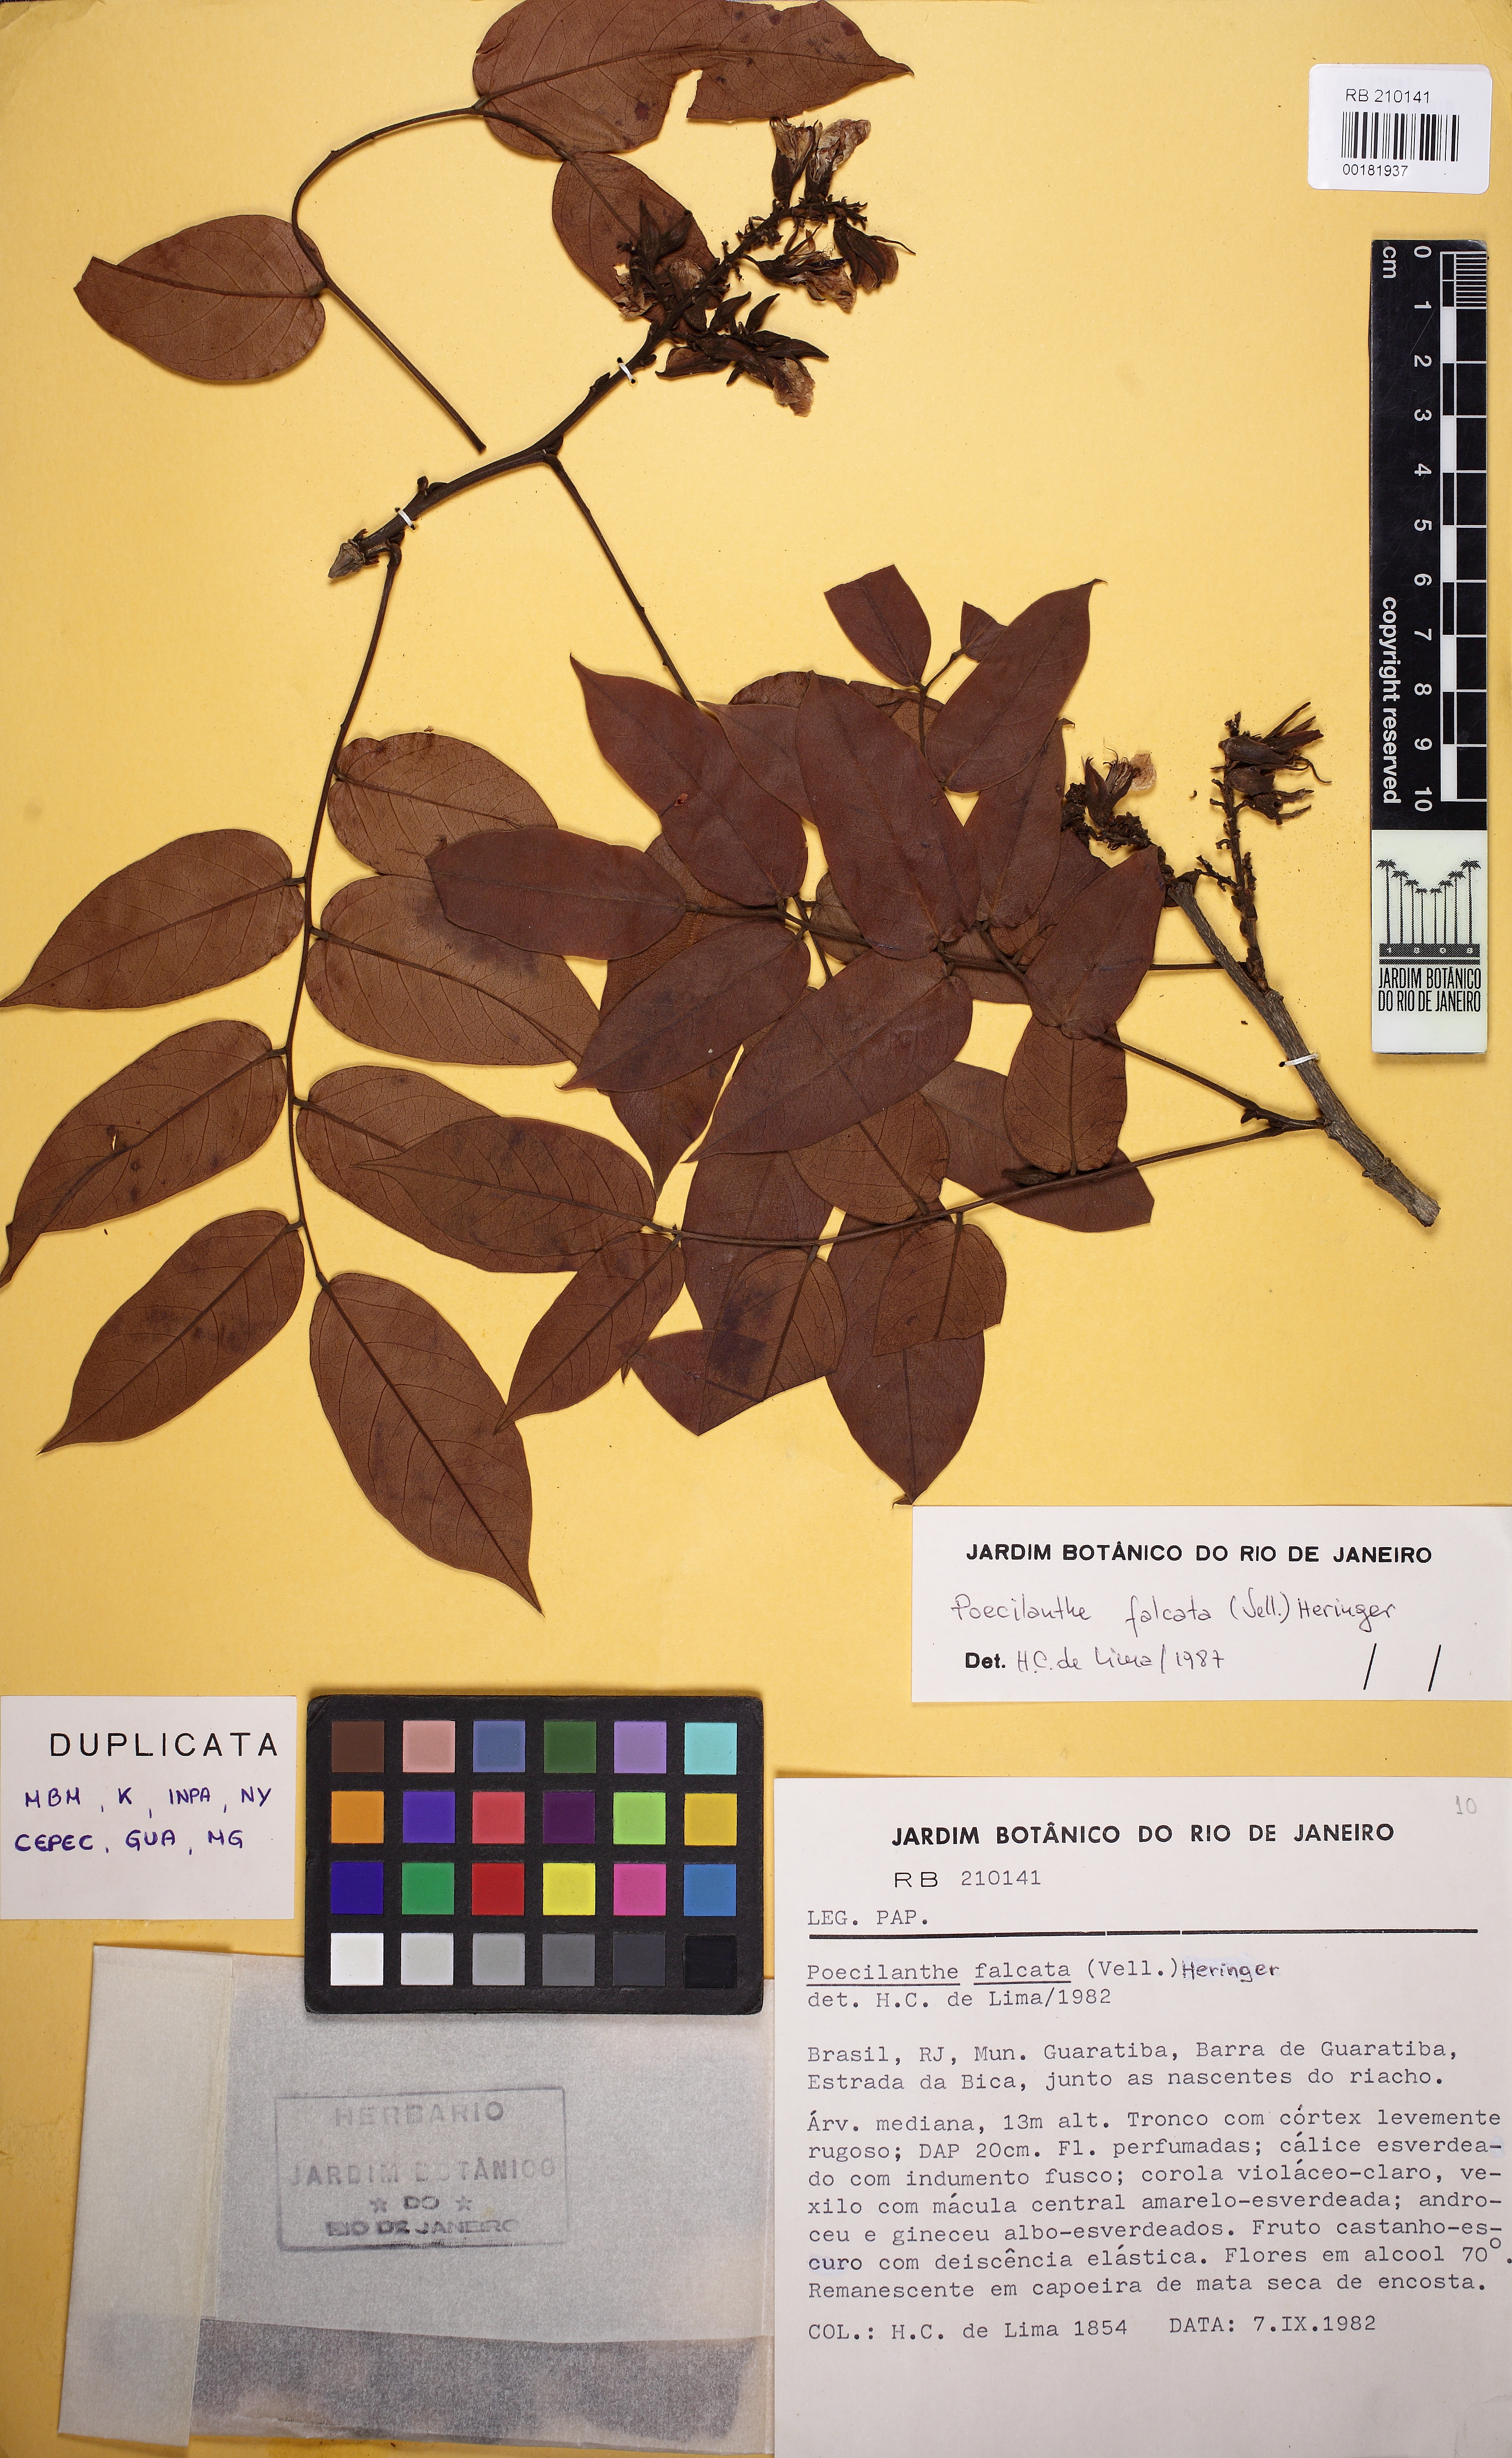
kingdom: Plantae
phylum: Tracheophyta
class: Magnoliopsida
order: Fabales
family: Fabaceae
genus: Poecilanthe
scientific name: Poecilanthe falcata
